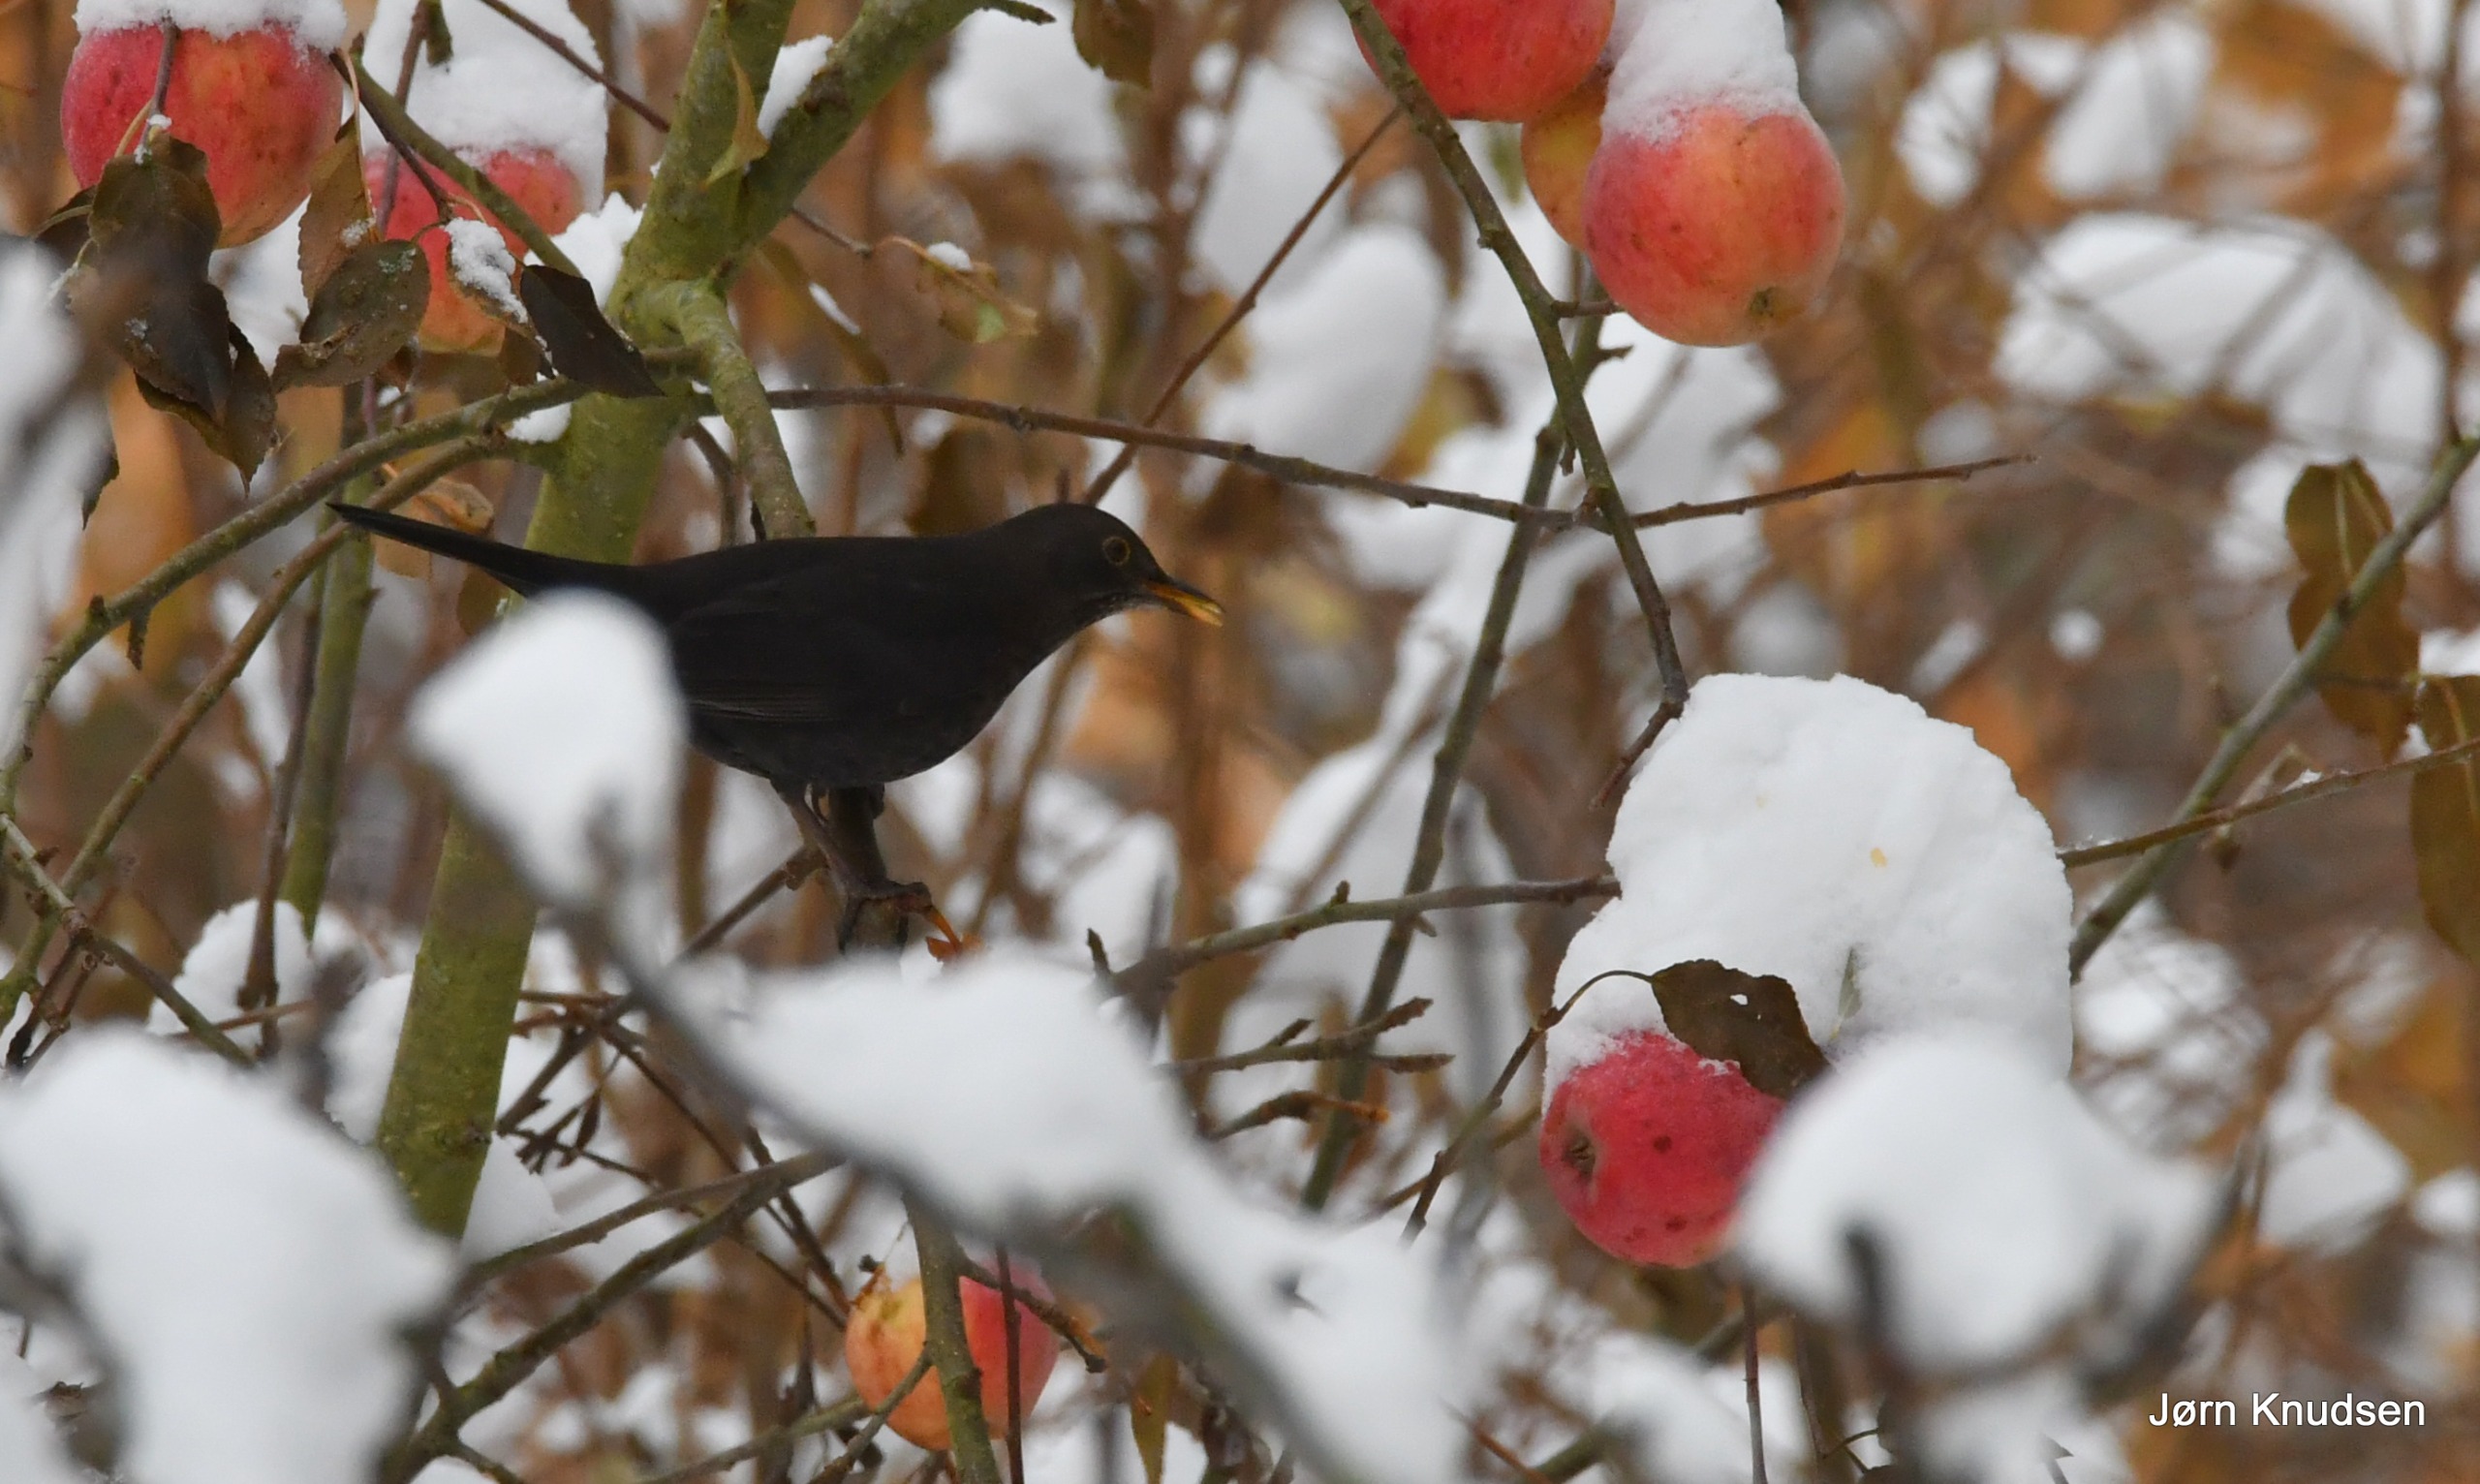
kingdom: Animalia
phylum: Chordata
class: Aves
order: Passeriformes
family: Turdidae
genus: Turdus
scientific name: Turdus merula
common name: Solsort
